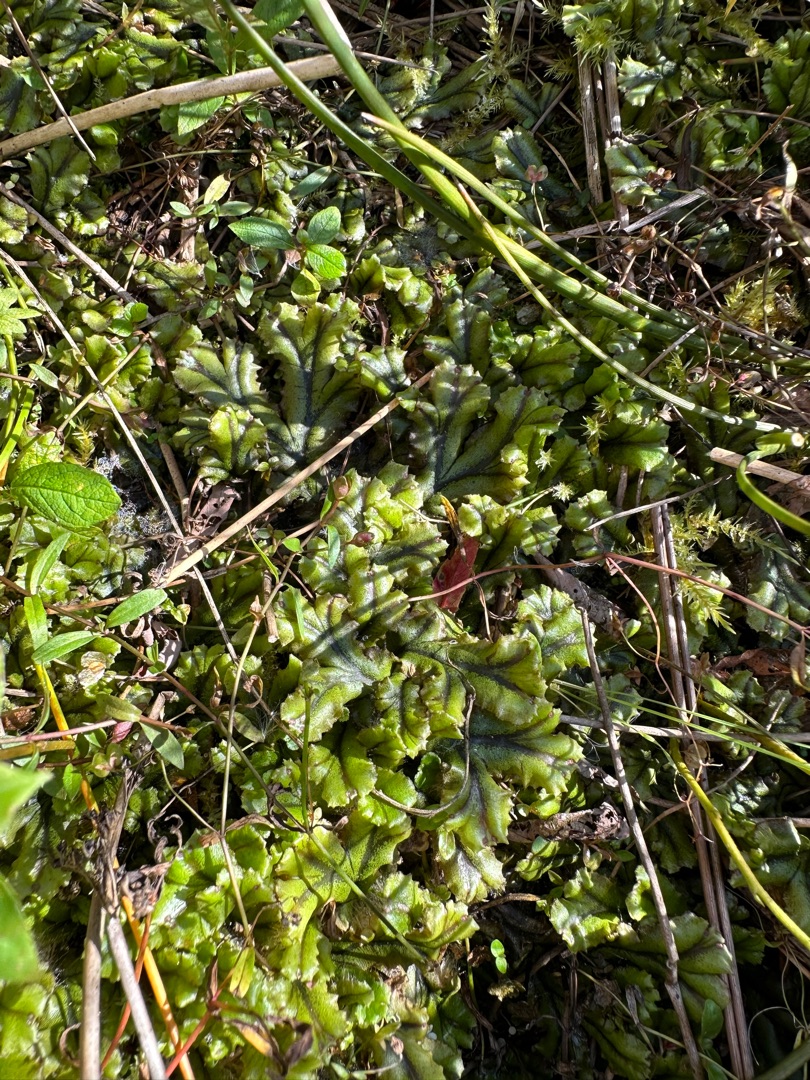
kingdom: Plantae
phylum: Marchantiophyta
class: Marchantiopsida
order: Marchantiales
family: Marchantiaceae
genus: Marchantia
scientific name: Marchantia polymorpha
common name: Mose-lungemos
